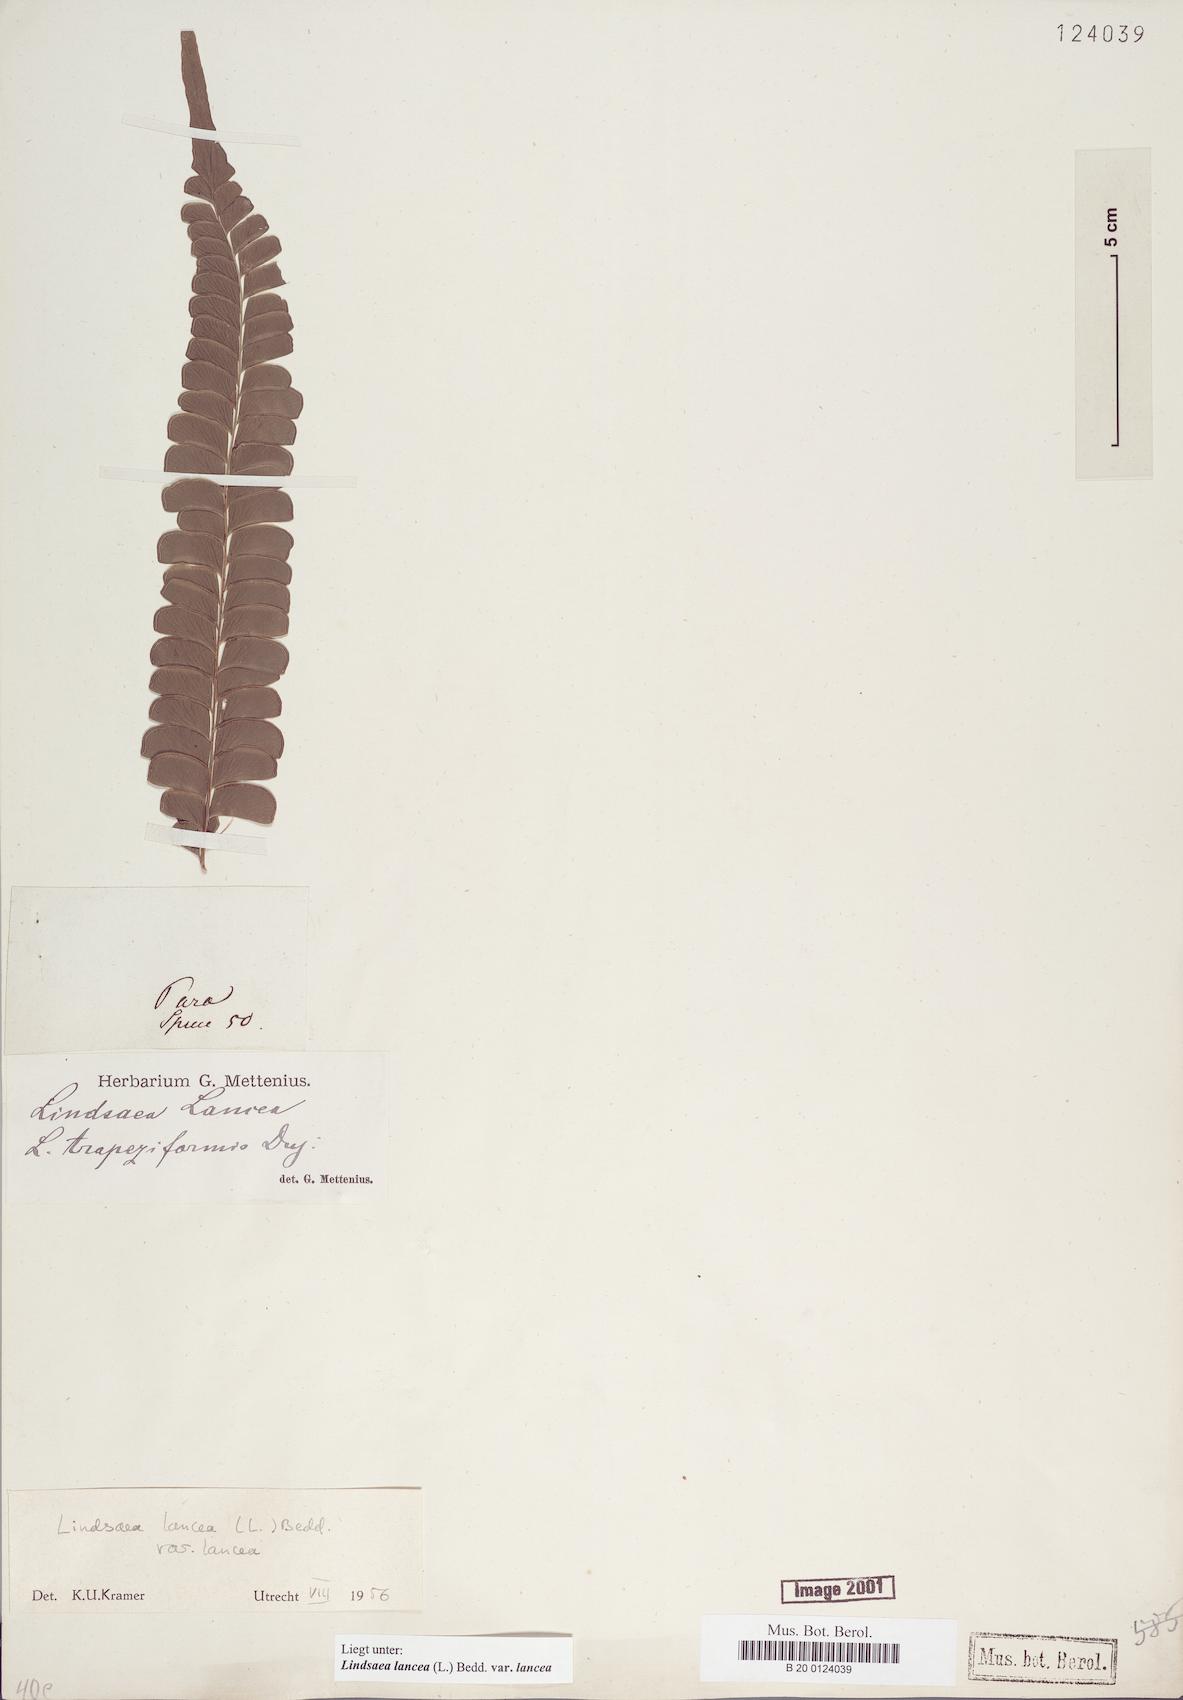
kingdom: Plantae
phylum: Tracheophyta
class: Polypodiopsida
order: Polypodiales
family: Lindsaeaceae
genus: Lindsaea
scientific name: Lindsaea lancea
